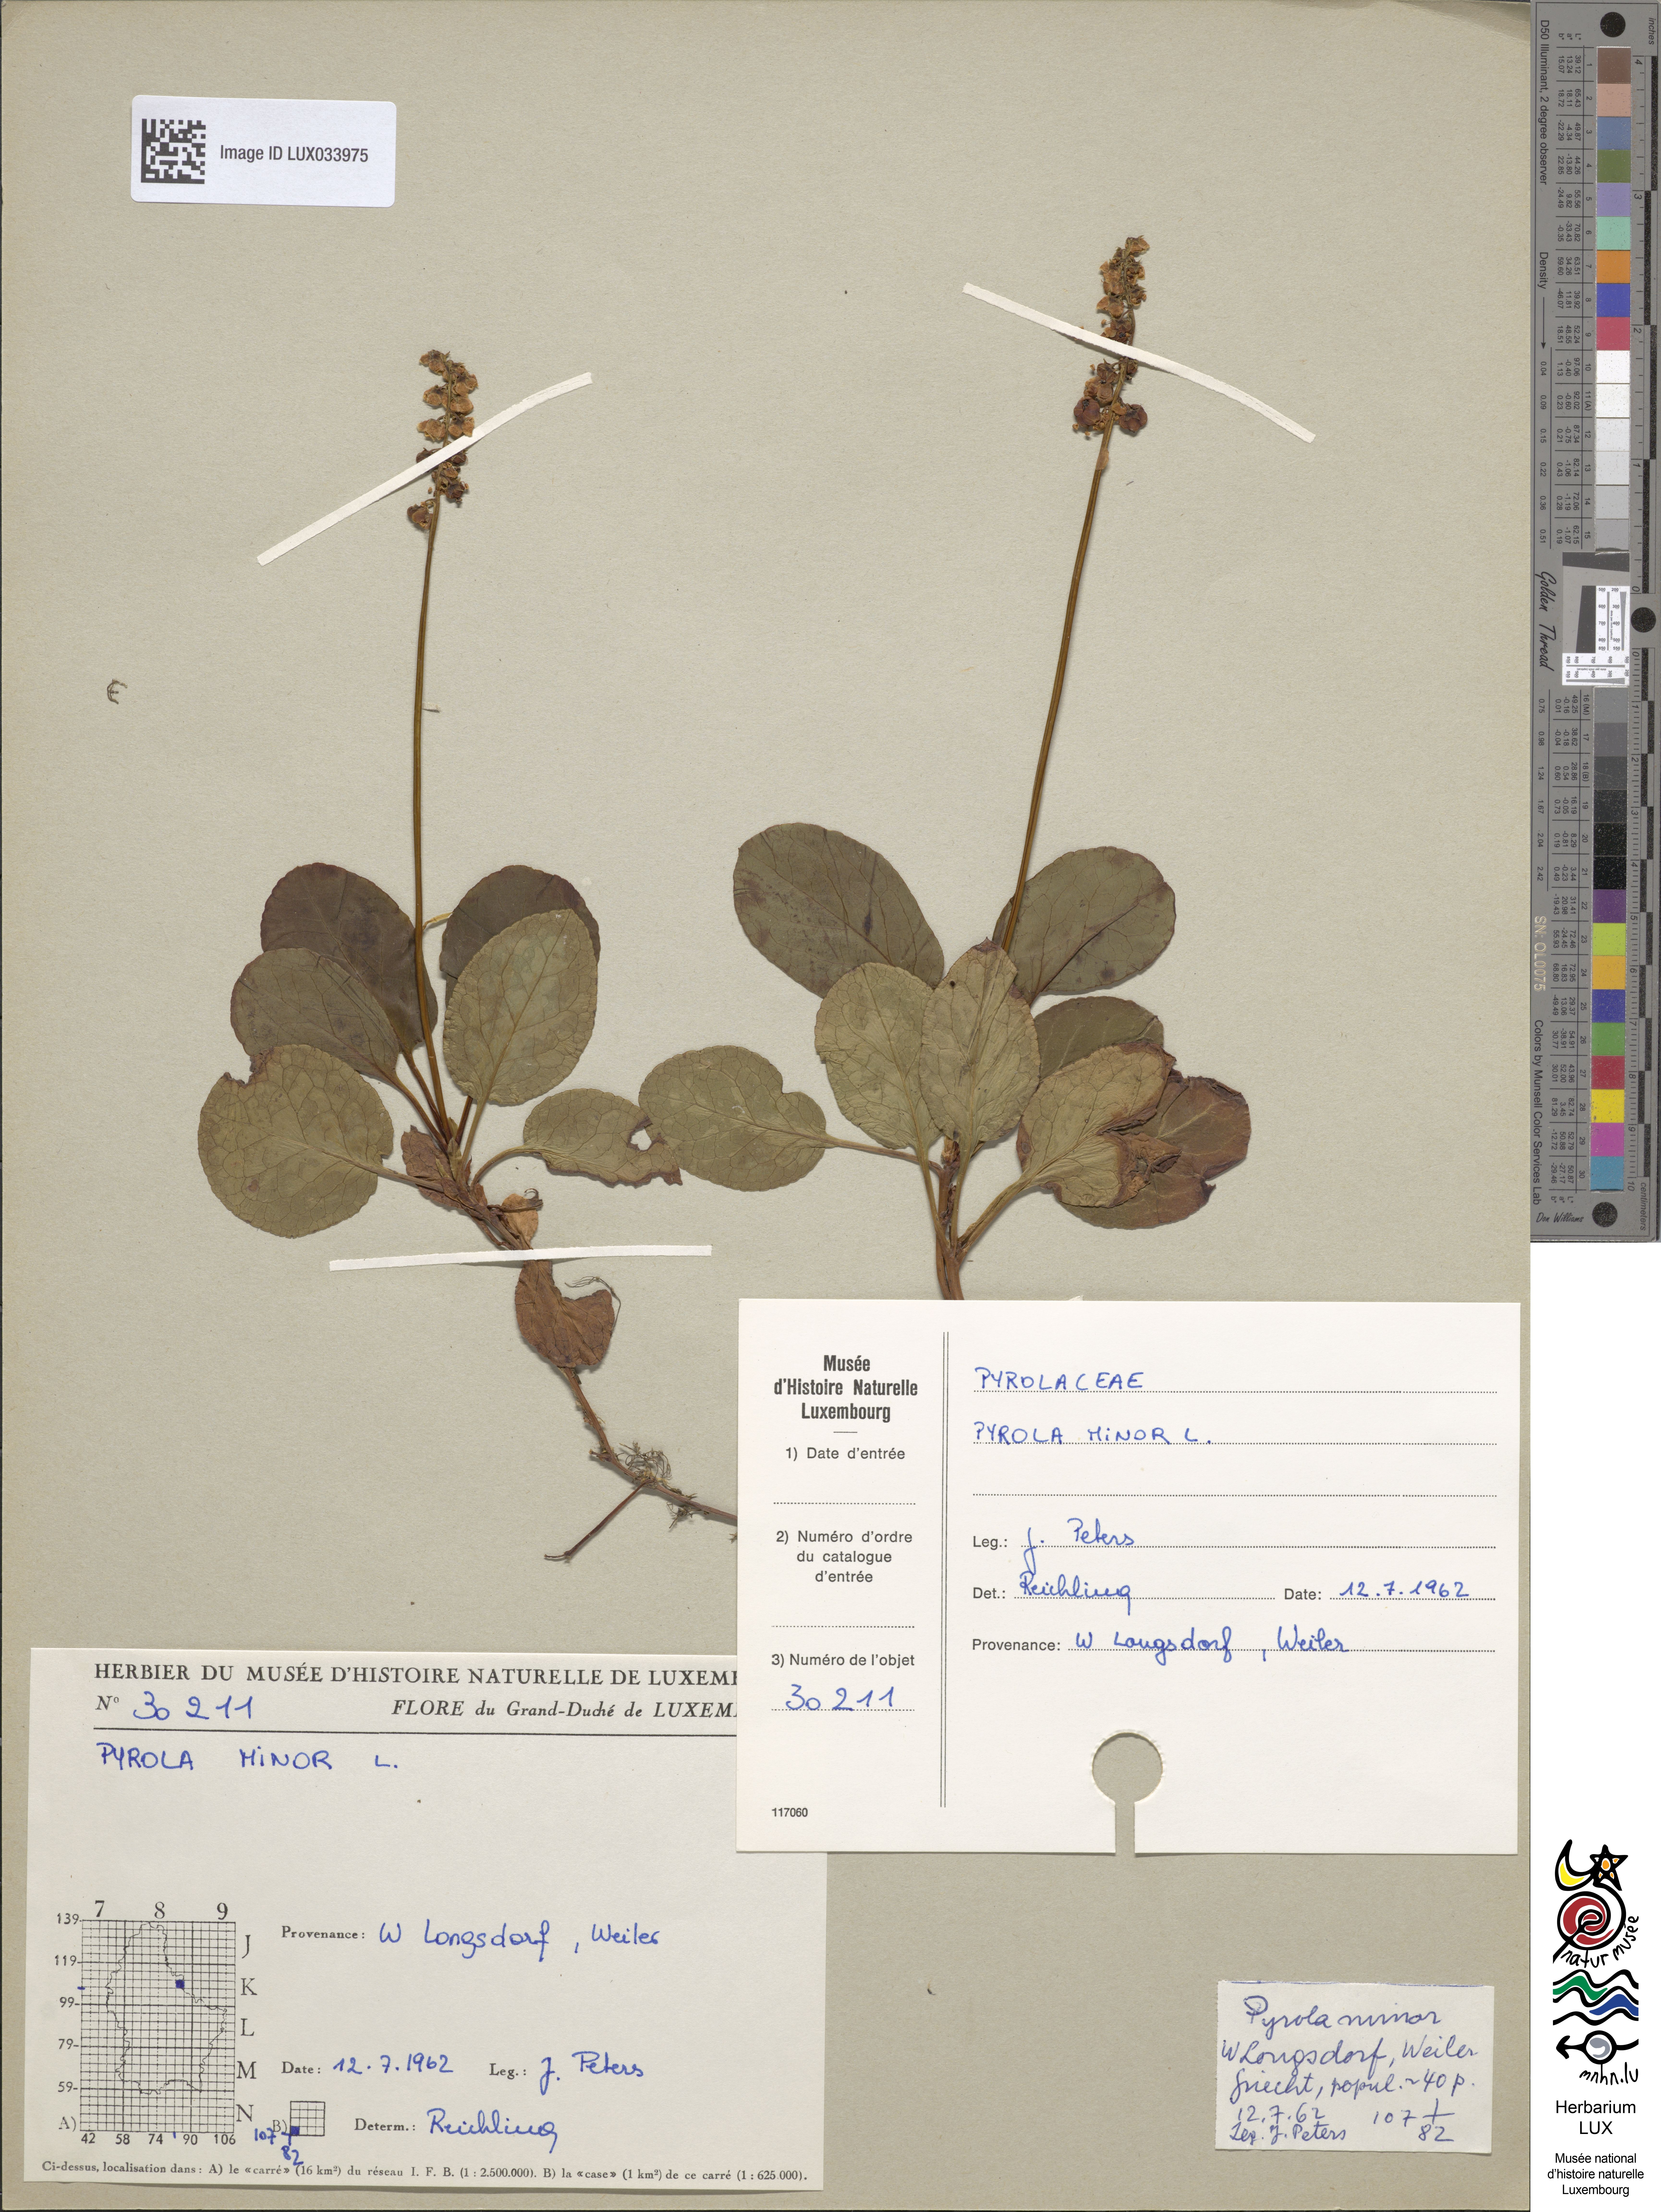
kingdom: Plantae
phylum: Tracheophyta
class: Magnoliopsida
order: Ericales
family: Ericaceae
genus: Pyrola
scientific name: Pyrola minor
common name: Common wintergreen
